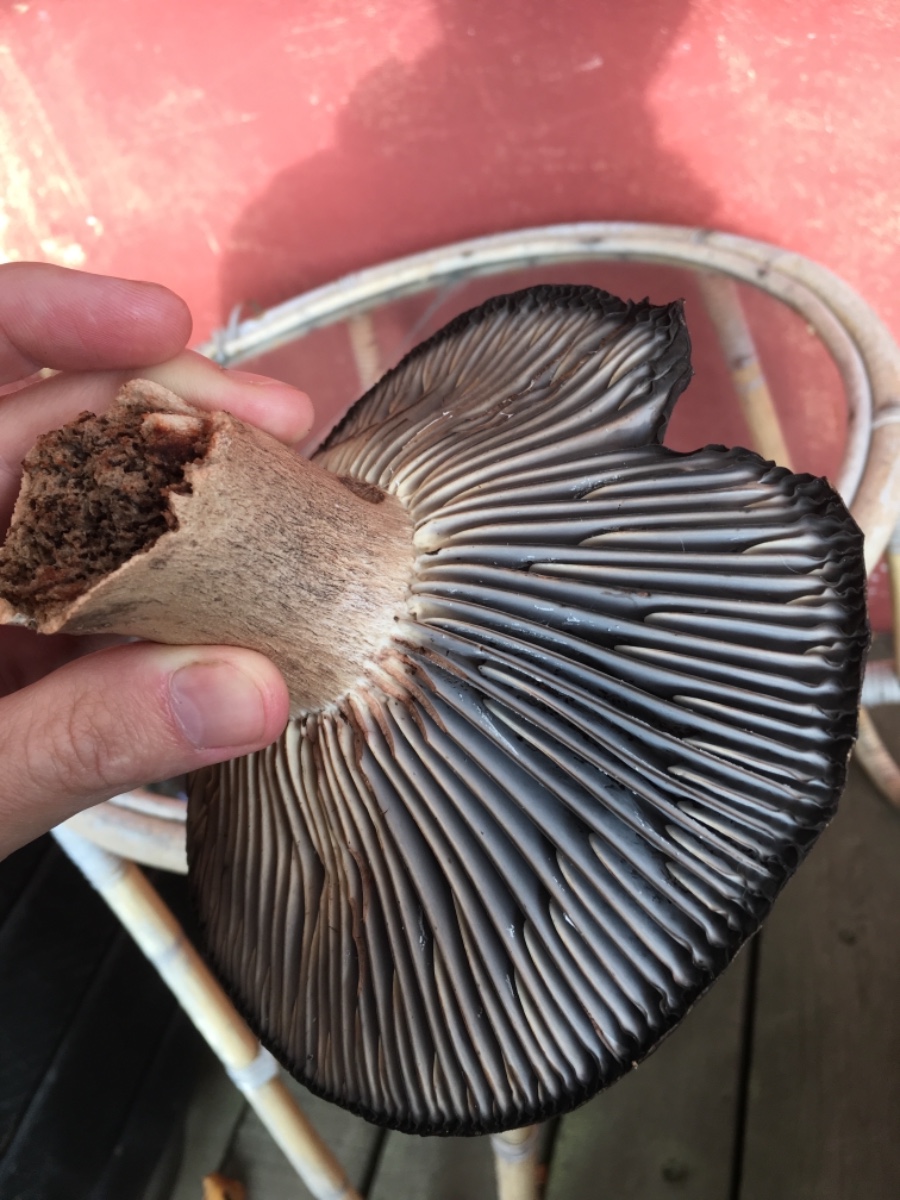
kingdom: Fungi
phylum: Basidiomycota
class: Agaricomycetes
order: Russulales
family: Russulaceae
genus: Russula
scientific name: Russula adusta
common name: sværtende skørhat
